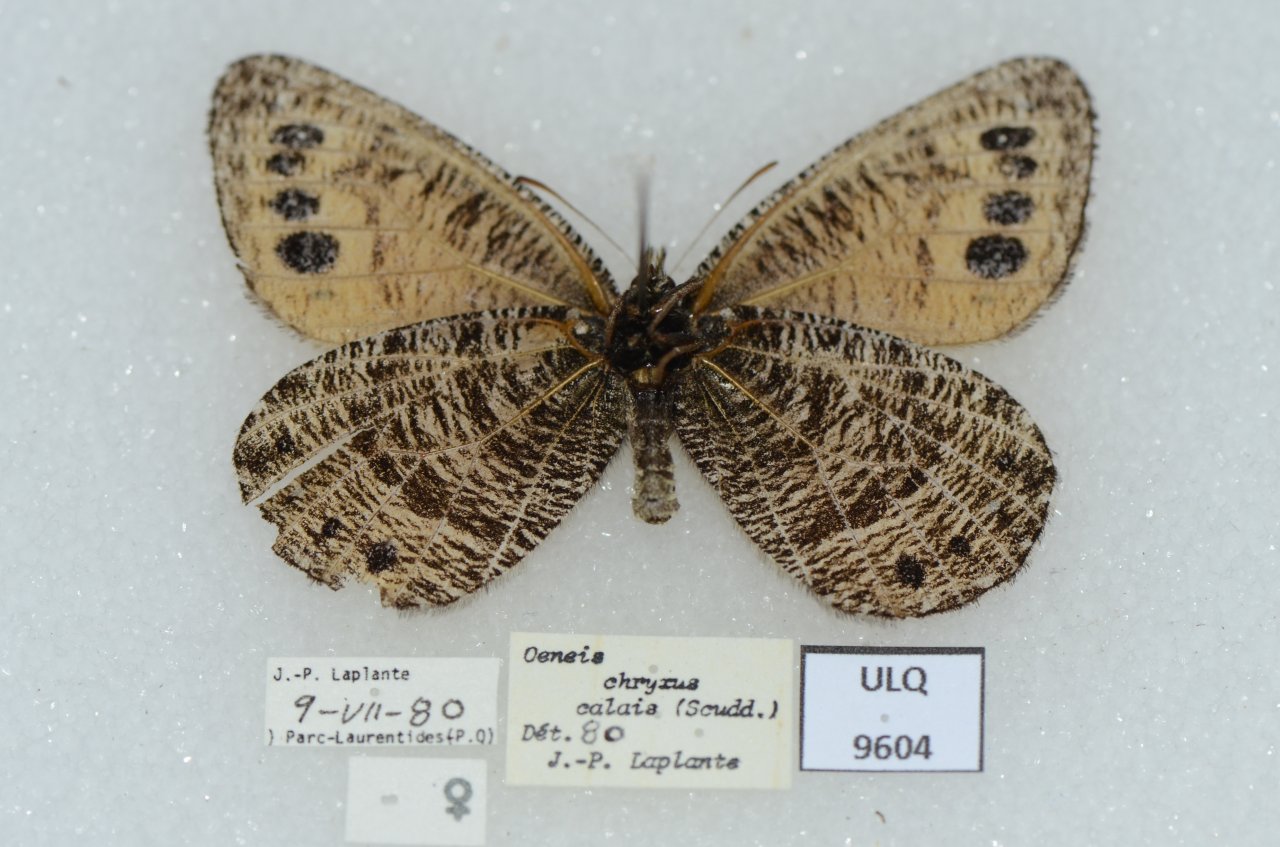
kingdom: Animalia
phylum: Arthropoda
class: Insecta
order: Lepidoptera
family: Nymphalidae
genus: Oeneis
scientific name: Oeneis chryxus
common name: Chryxus Arctic
